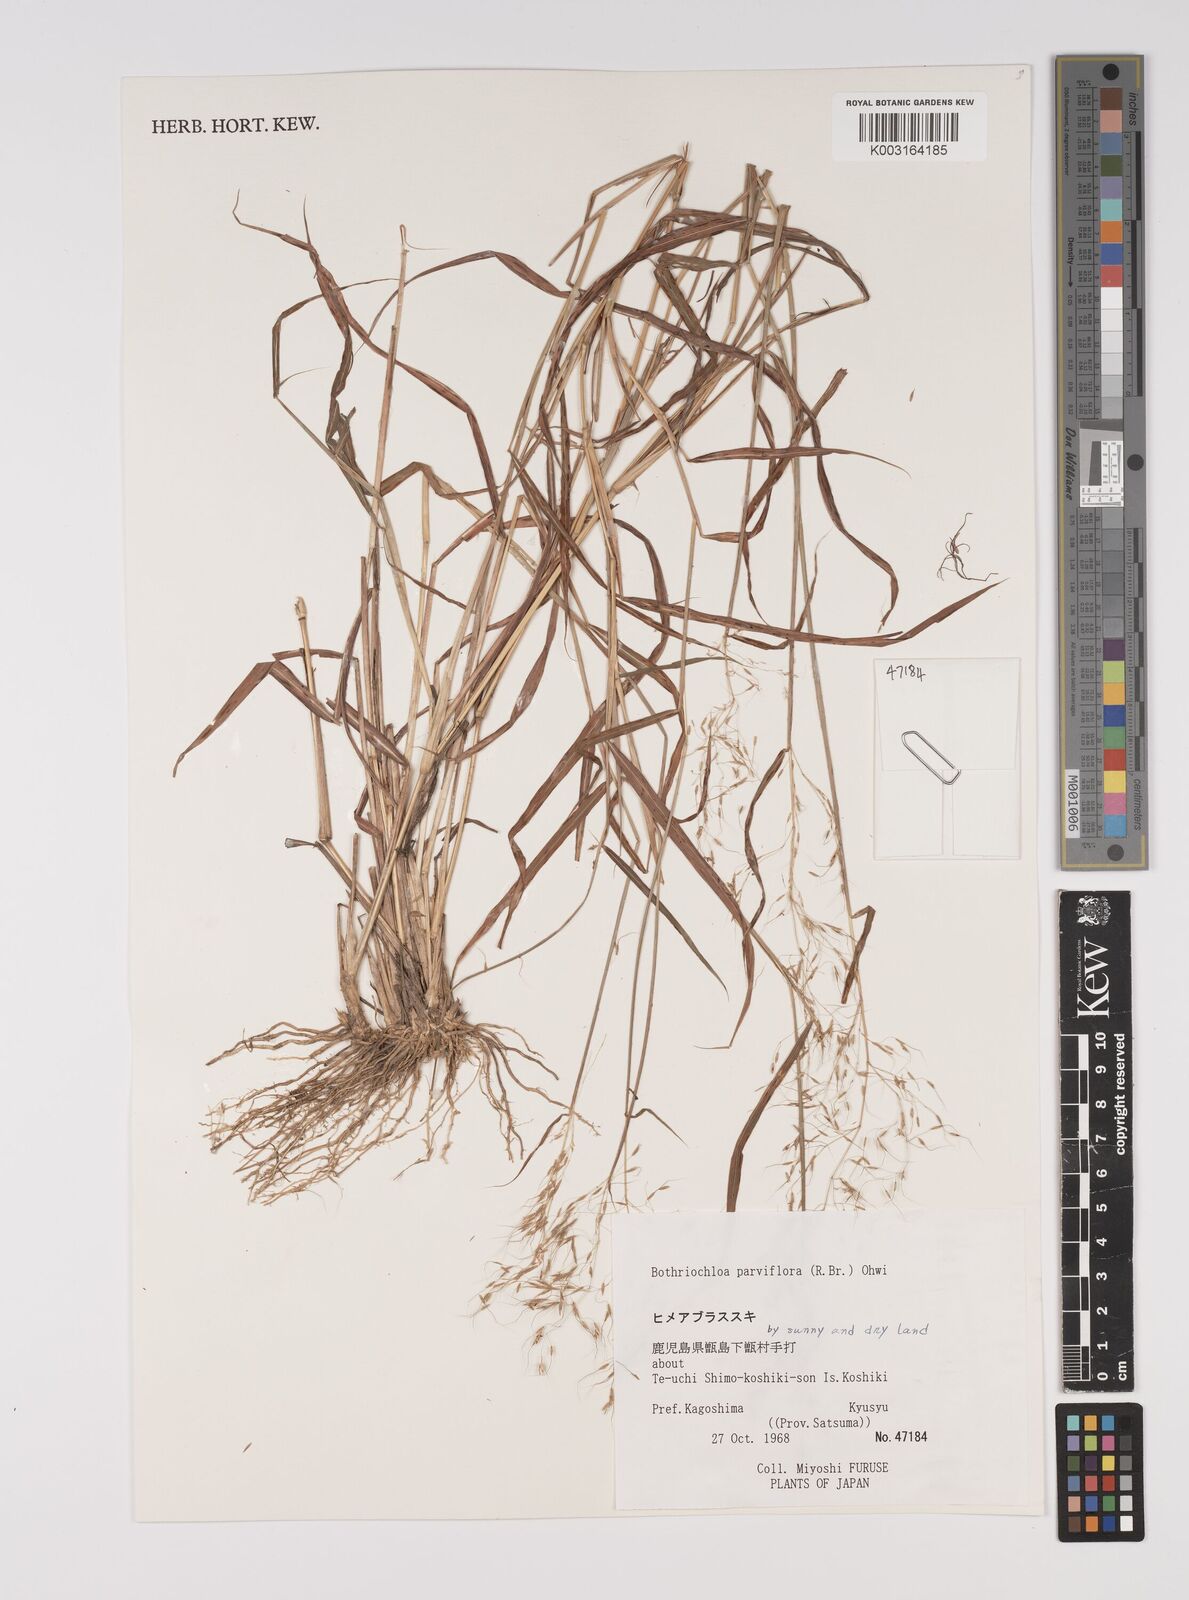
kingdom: Plantae
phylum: Tracheophyta
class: Liliopsida
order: Poales
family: Poaceae
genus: Capillipedium
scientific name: Capillipedium parviflorum
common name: Golden-beard
